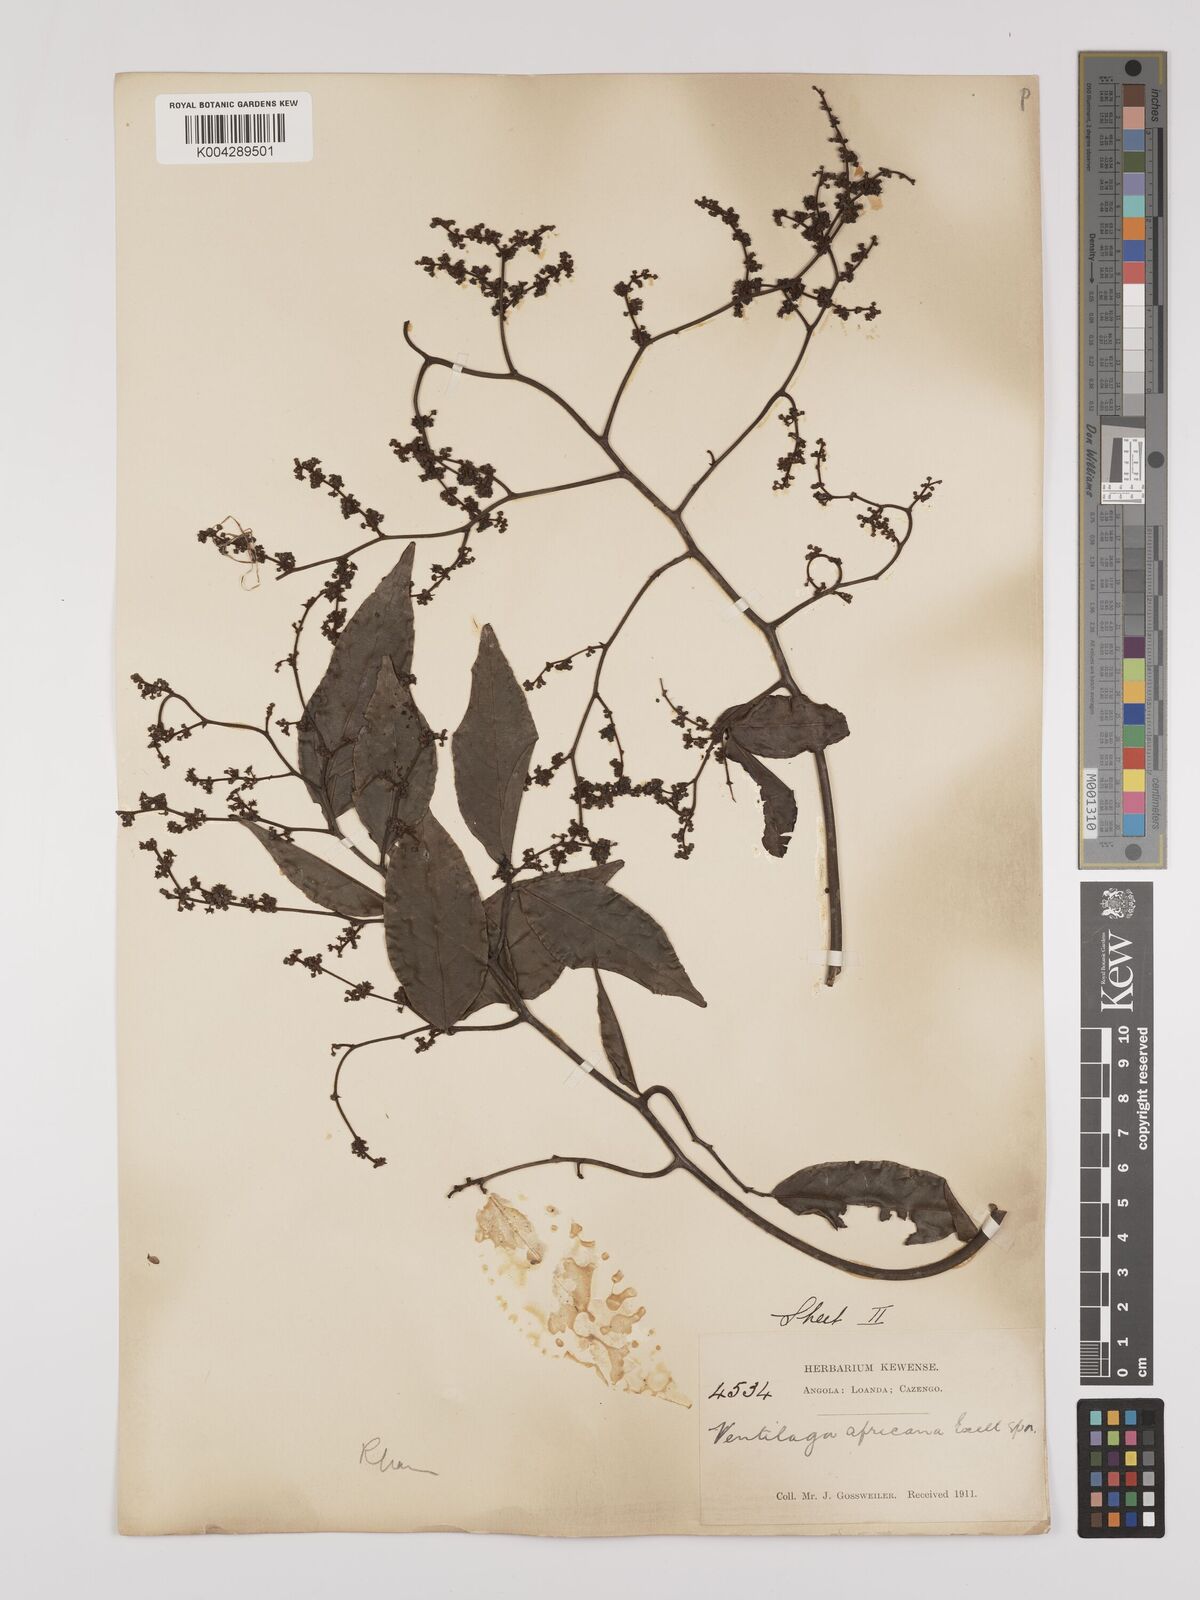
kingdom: Plantae
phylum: Tracheophyta
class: Magnoliopsida
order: Rosales
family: Rhamnaceae
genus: Ventilago
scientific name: Ventilago africana
